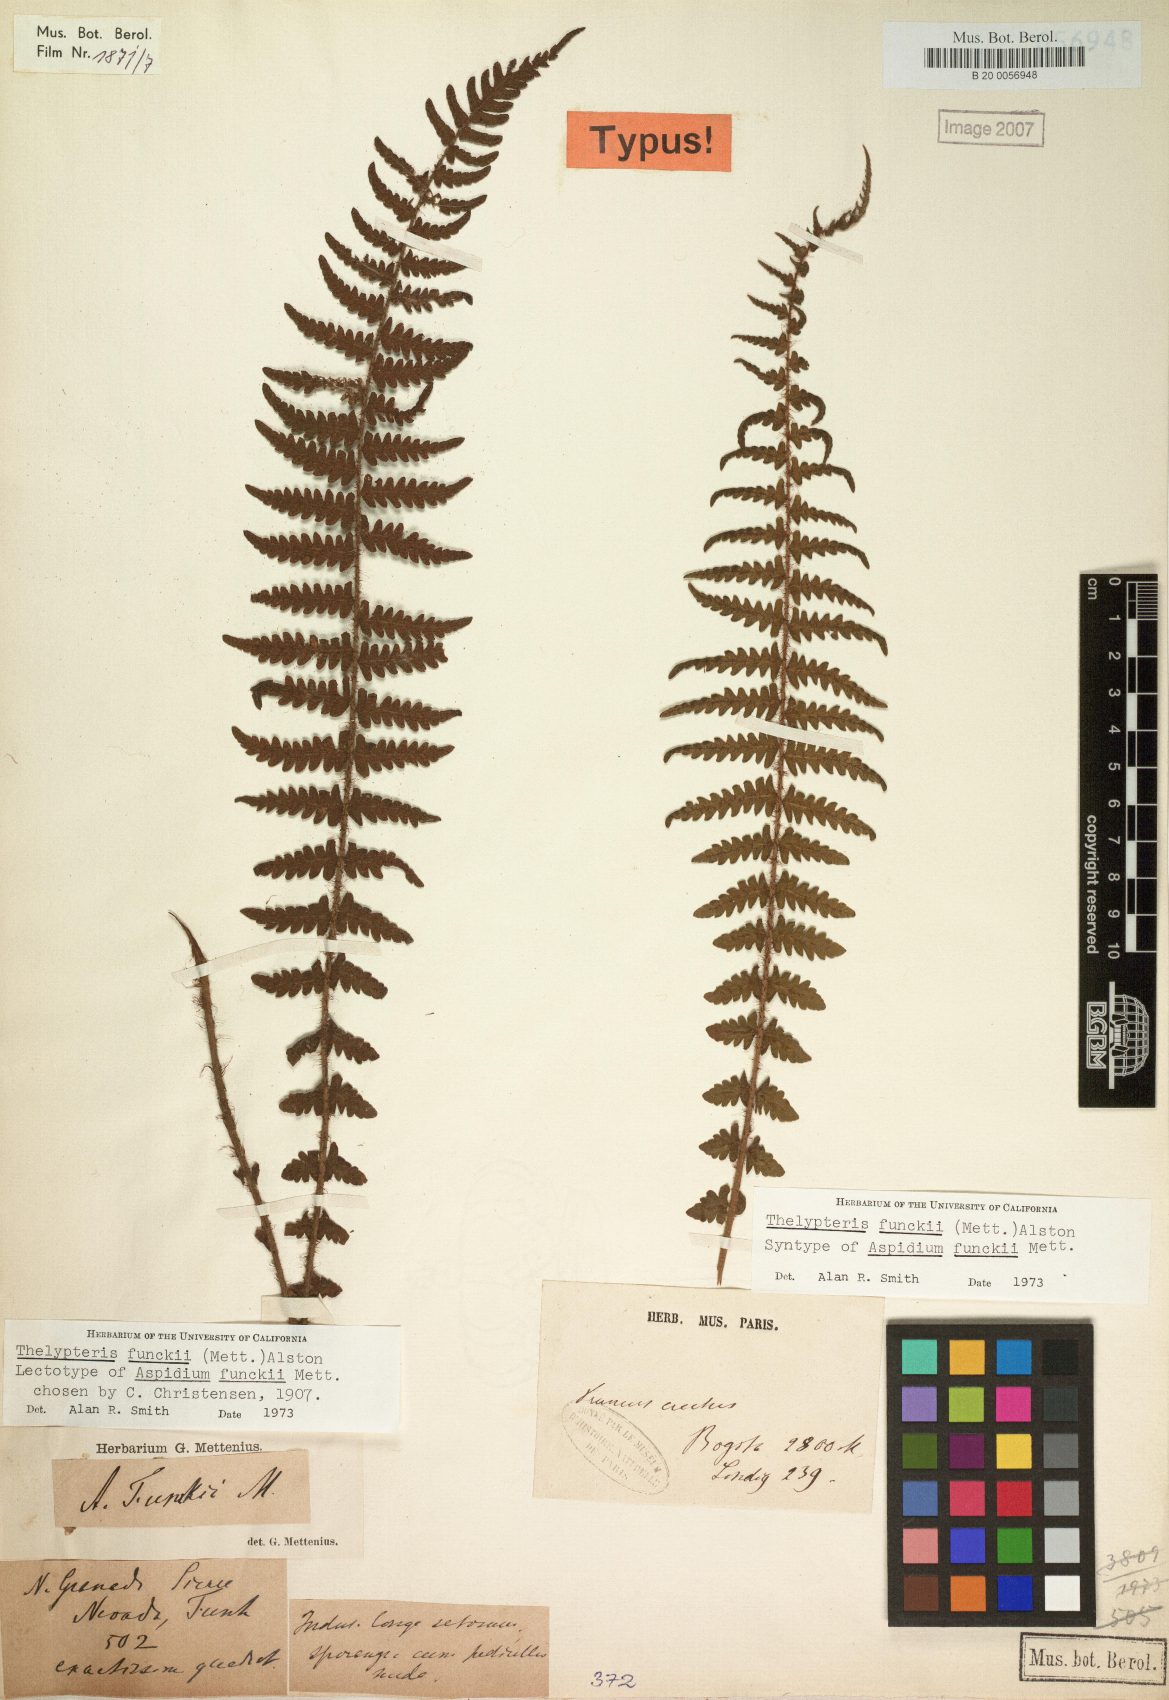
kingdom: Plantae
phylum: Tracheophyta
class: Polypodiopsida
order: Polypodiales
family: Thelypteridaceae
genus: Amauropelta
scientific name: Amauropelta funckii
